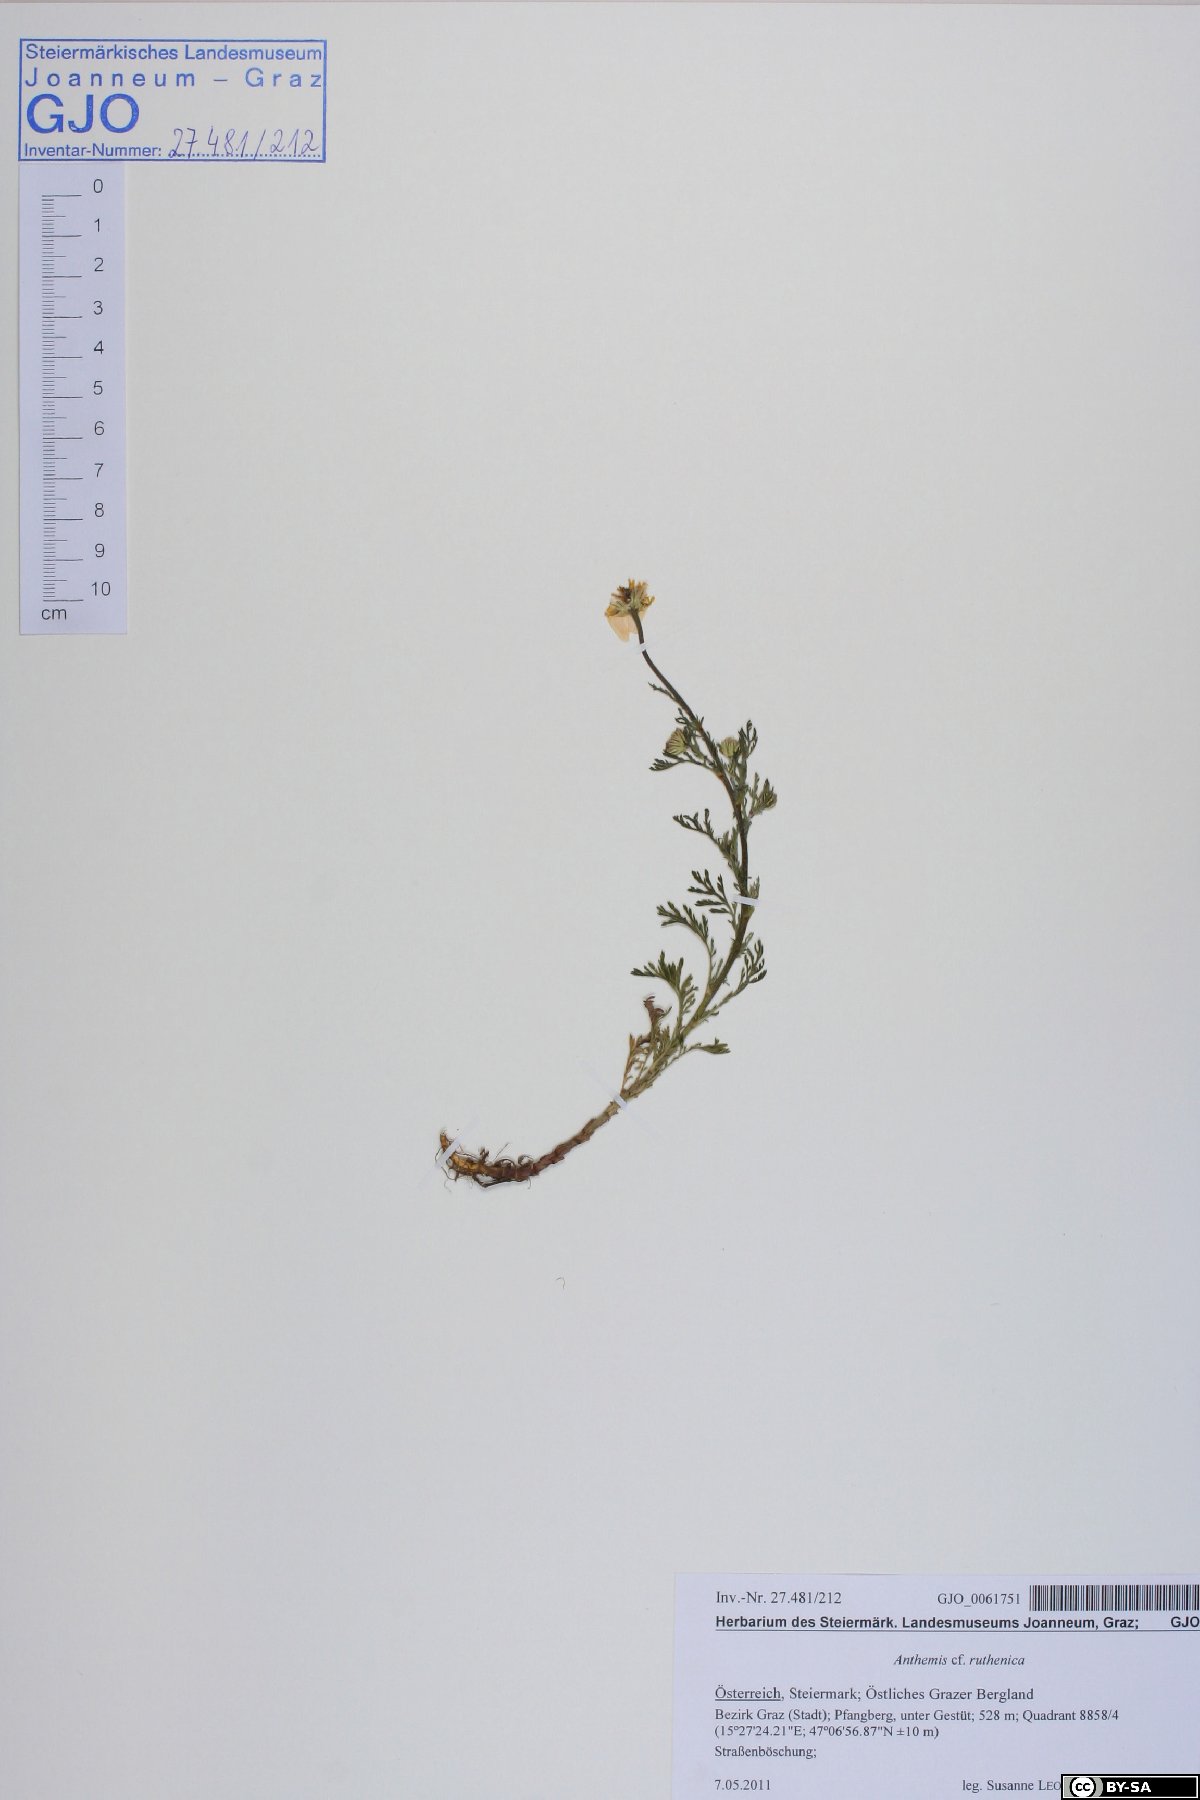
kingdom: Plantae
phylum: Tracheophyta
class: Magnoliopsida
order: Asterales
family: Asteraceae
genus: Anthemis
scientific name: Anthemis arvensis
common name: Corn chamomile
